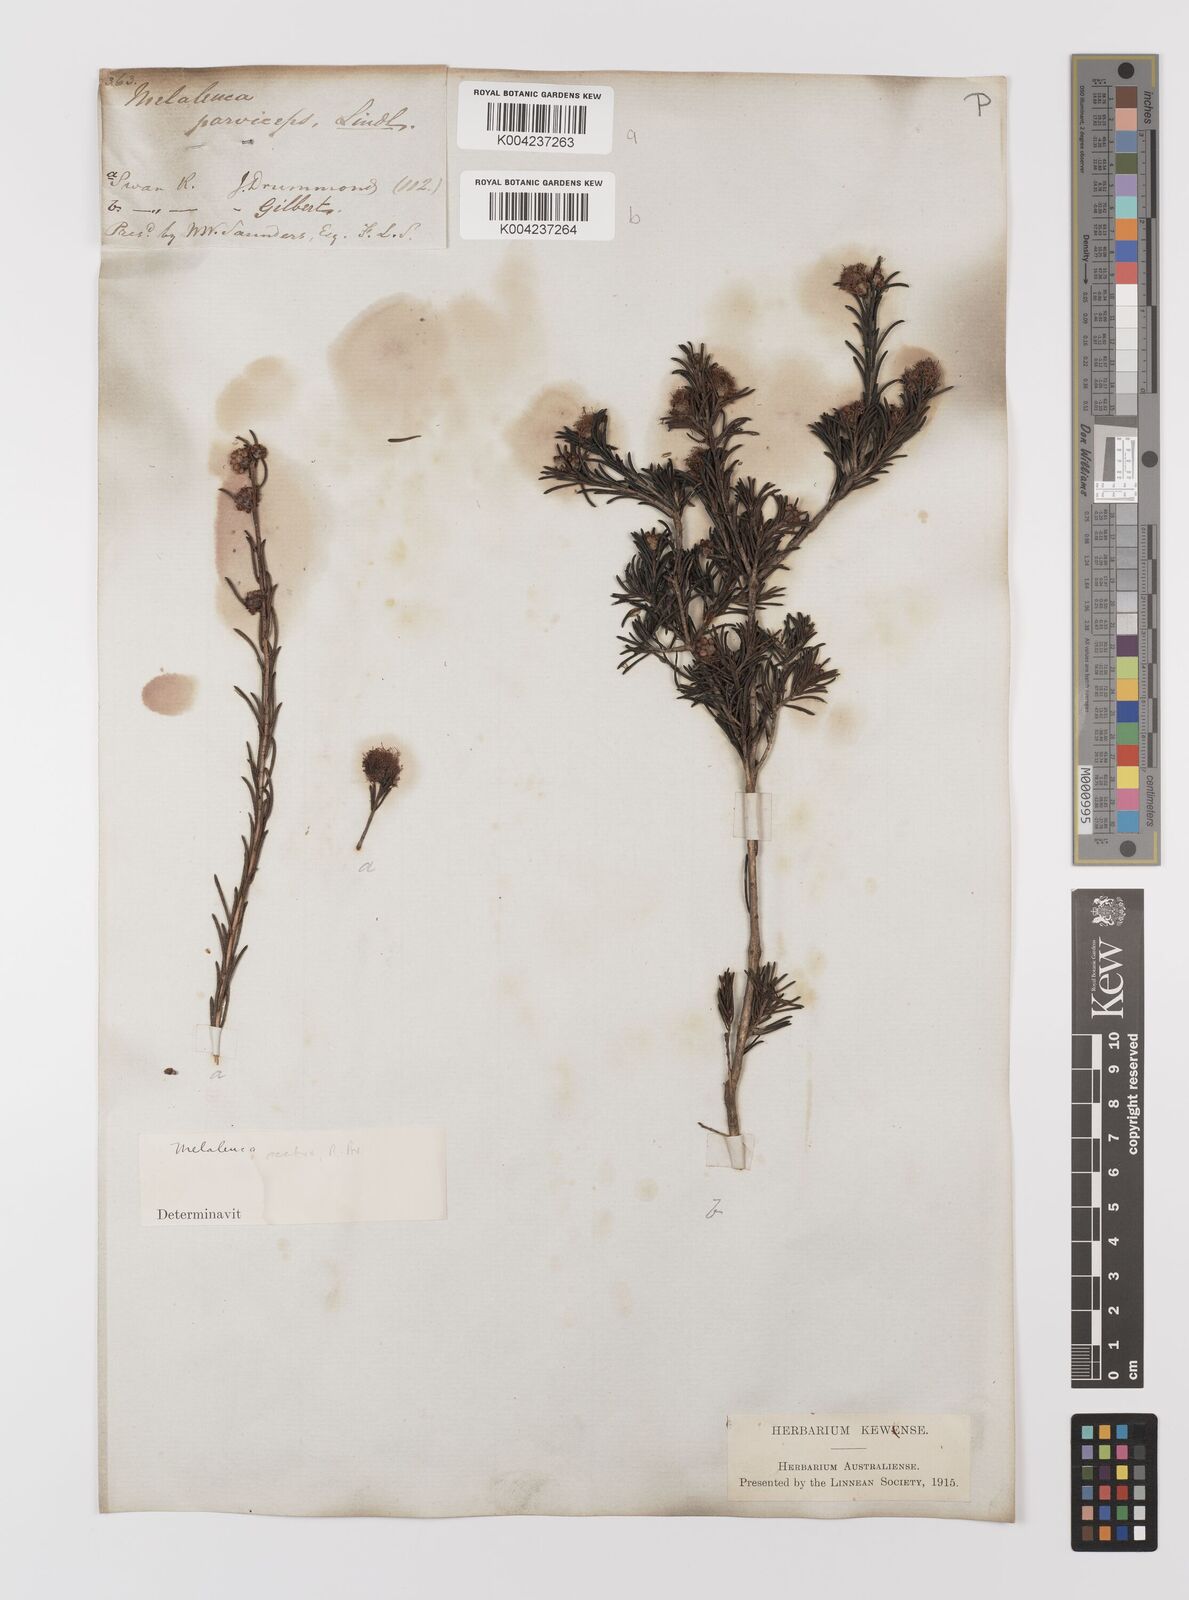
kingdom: Plantae
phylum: Tracheophyta
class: Magnoliopsida
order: Myrtales
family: Myrtaceae
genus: Melaleuca
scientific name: Melaleuca parviceps
